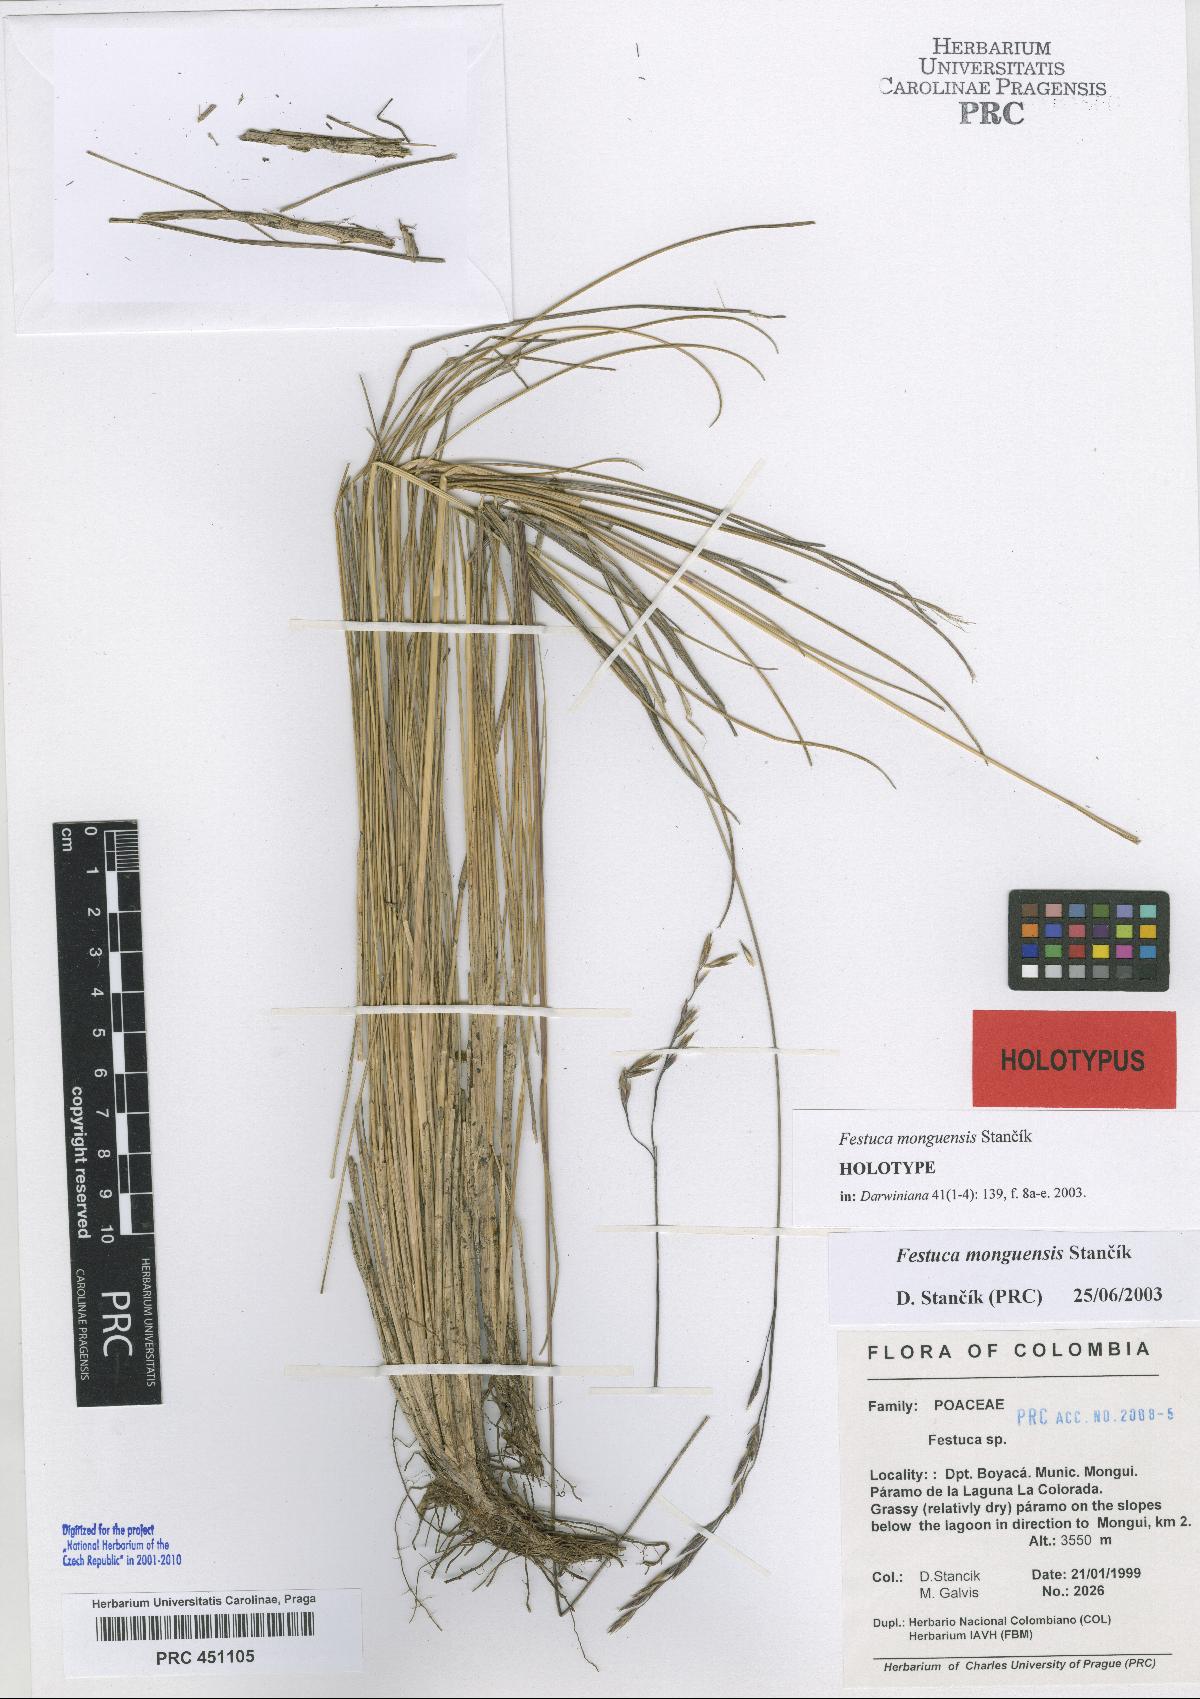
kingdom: Plantae
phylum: Tracheophyta
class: Liliopsida
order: Poales
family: Poaceae
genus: Festuca
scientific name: Festuca monguensis
